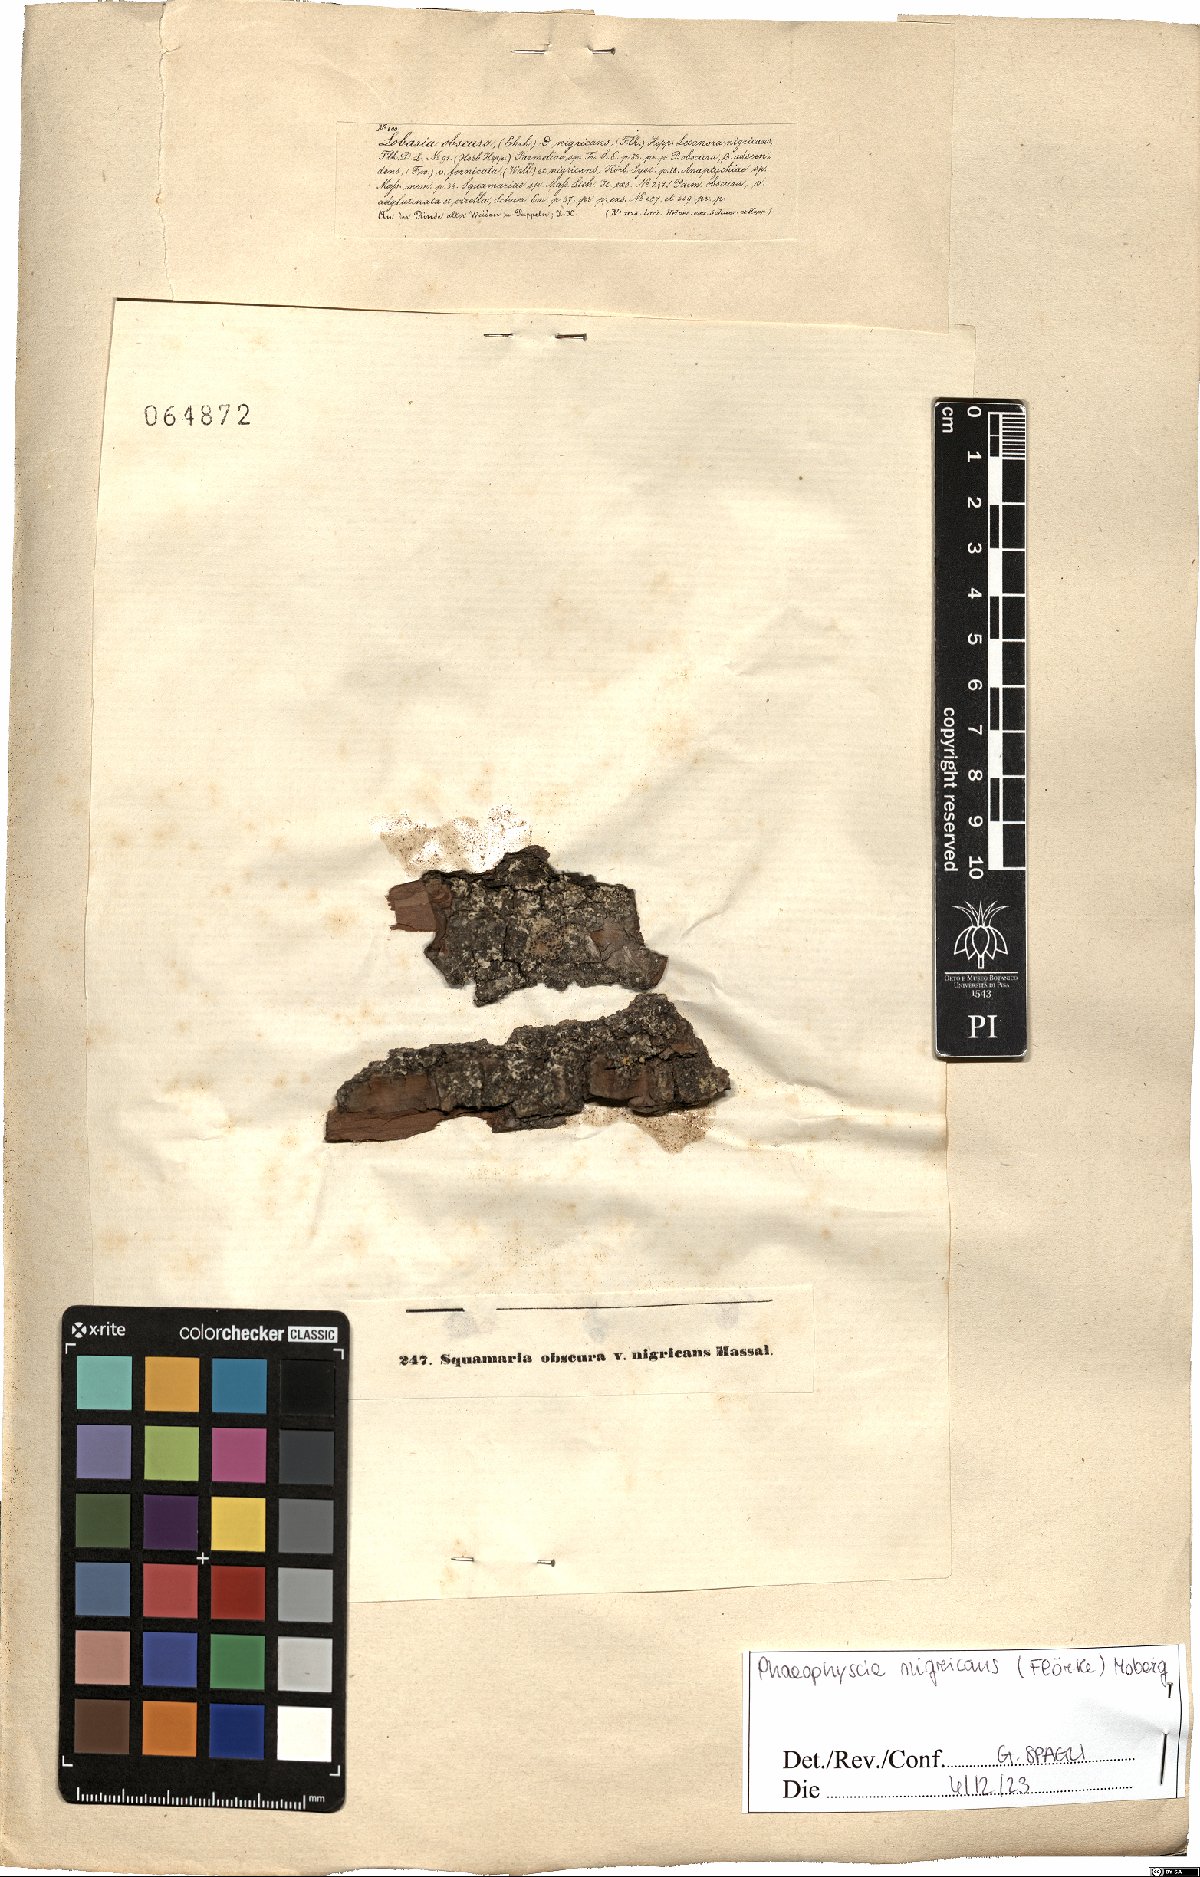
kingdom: Fungi
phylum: Ascomycota
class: Lecanoromycetes
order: Caliciales
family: Physciaceae
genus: Physciella
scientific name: Physciella nigricans
